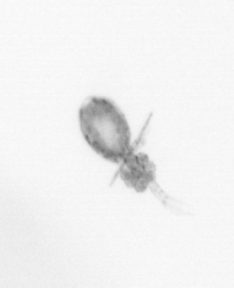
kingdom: Animalia
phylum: Arthropoda
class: Copepoda
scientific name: Copepoda
